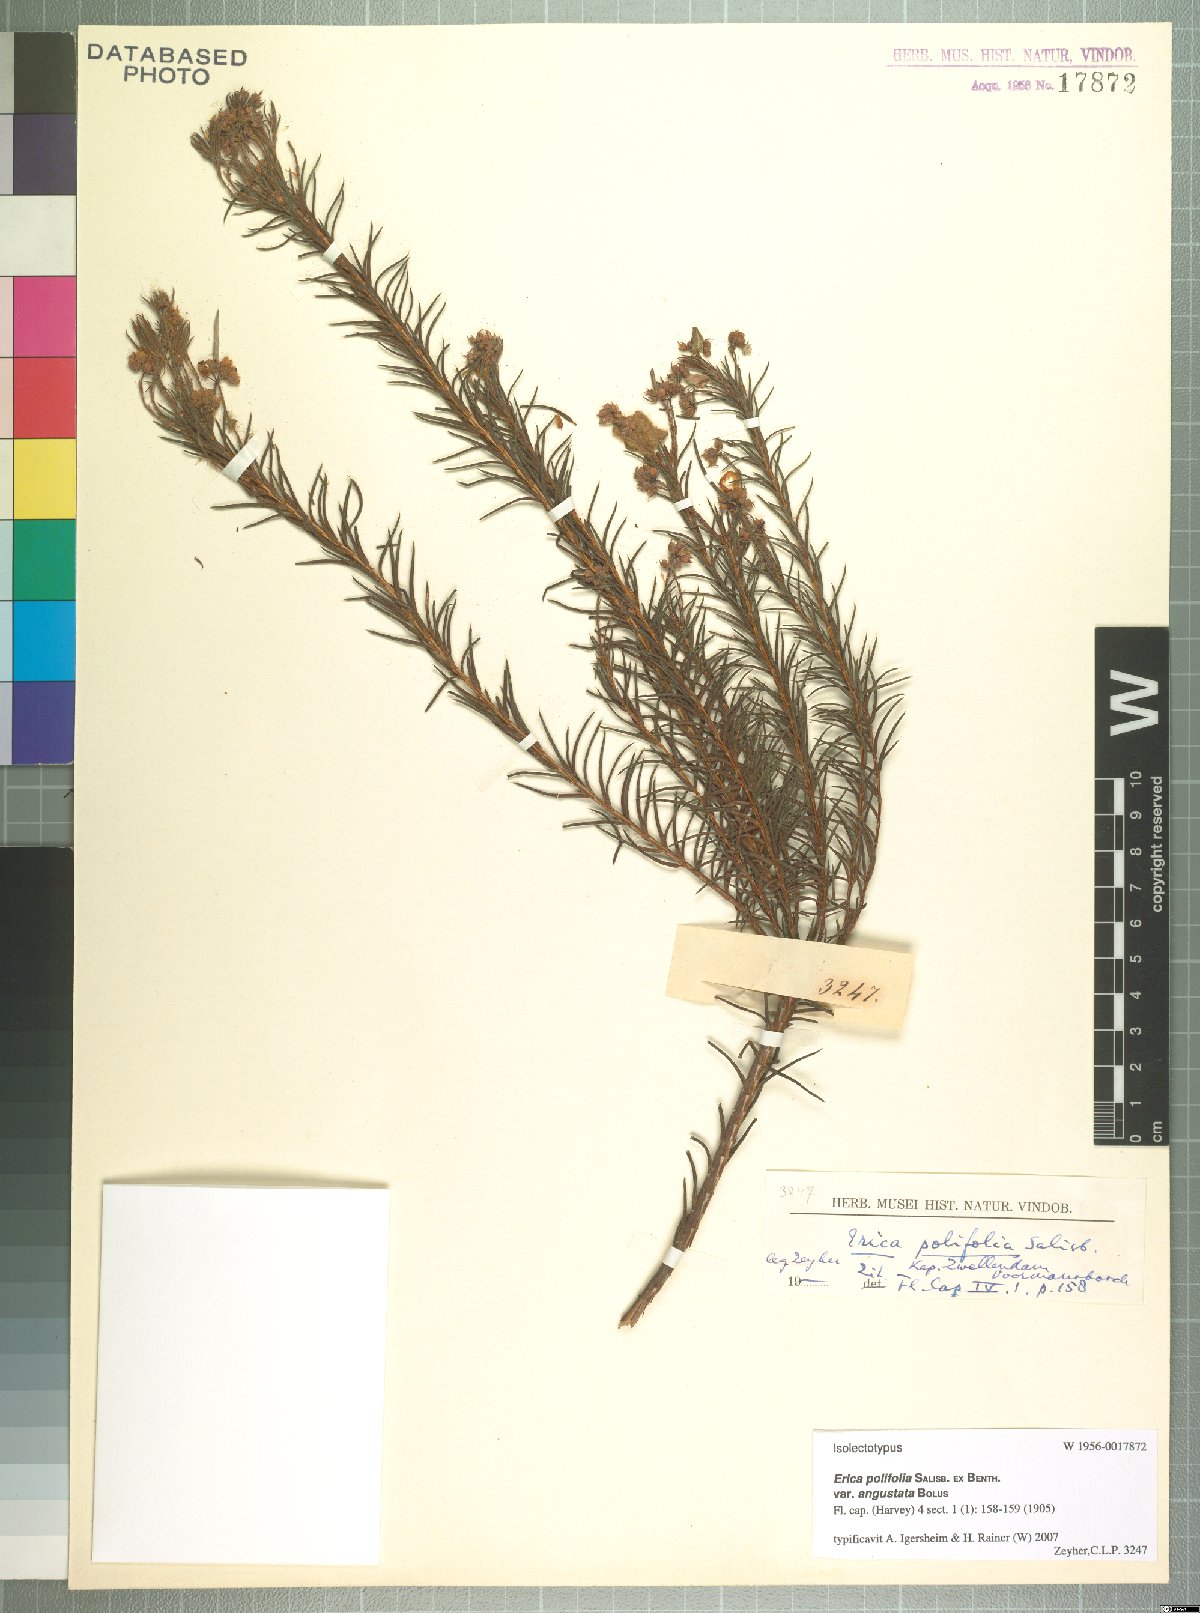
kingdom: Plantae
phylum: Tracheophyta
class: Magnoliopsida
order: Ericales
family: Ericaceae
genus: Erica
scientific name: Erica polifolia
